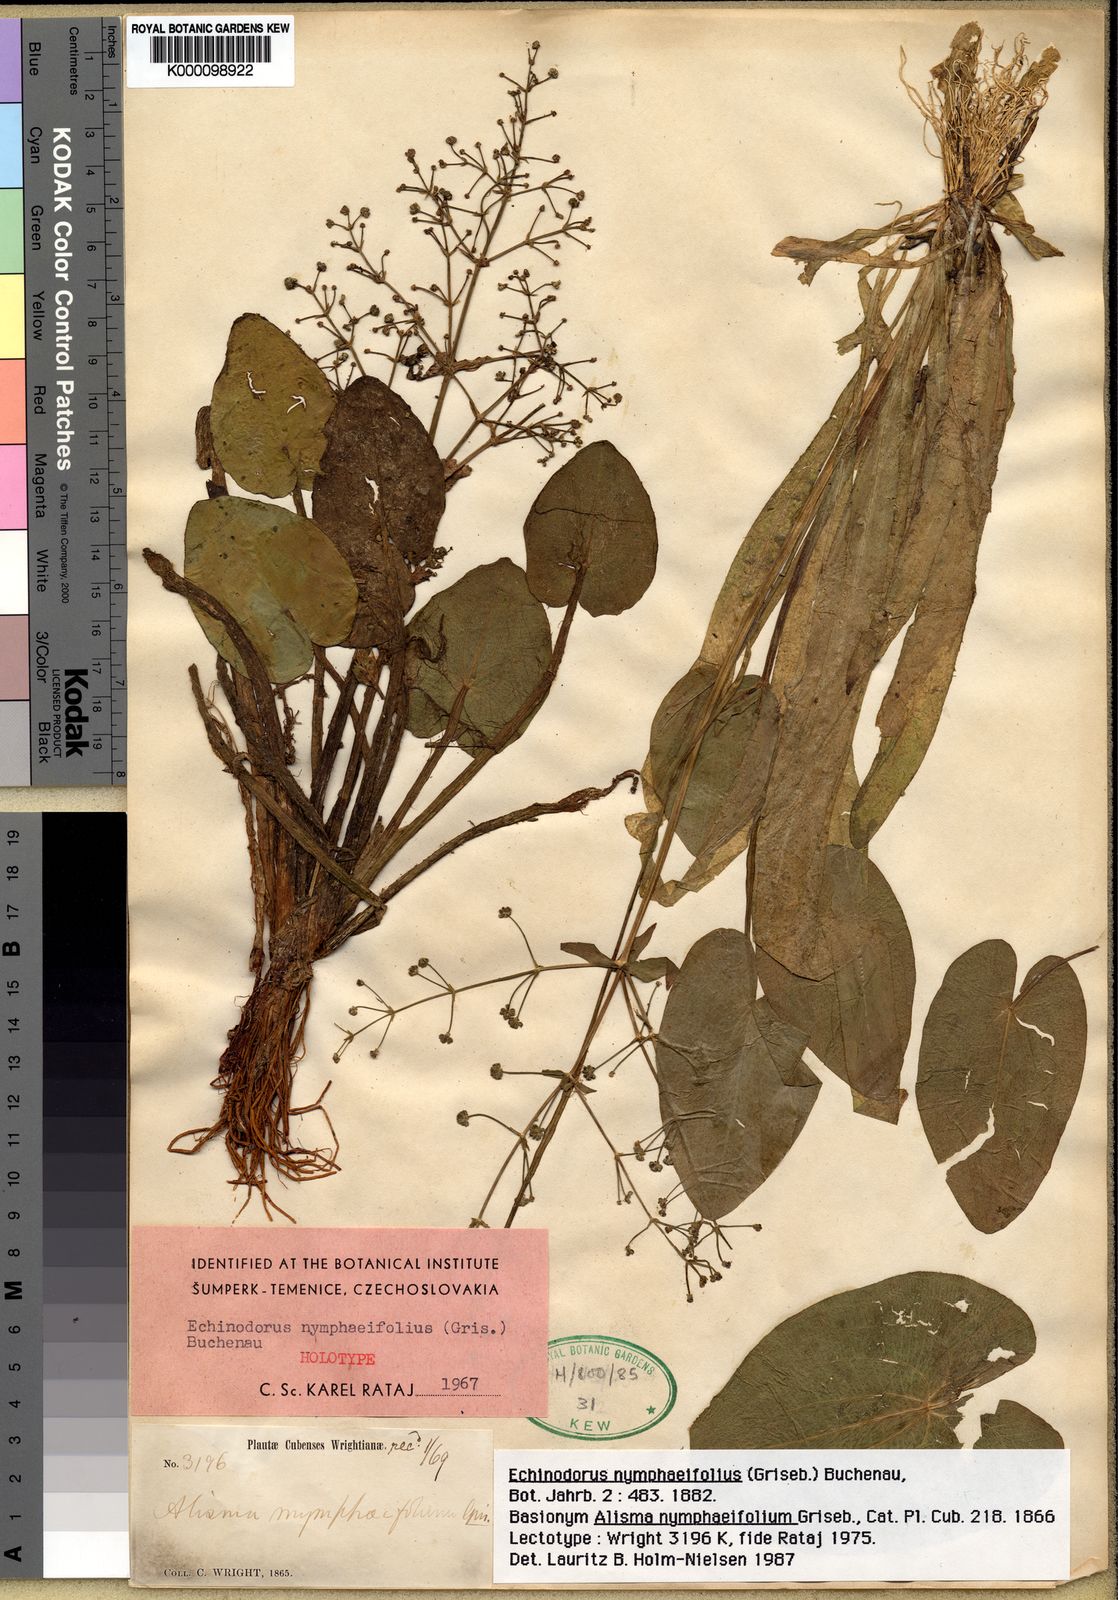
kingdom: Plantae
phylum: Tracheophyta
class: Liliopsida
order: Alismatales
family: Alismataceae
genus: Albidella
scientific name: Albidella nymphaeifolia
